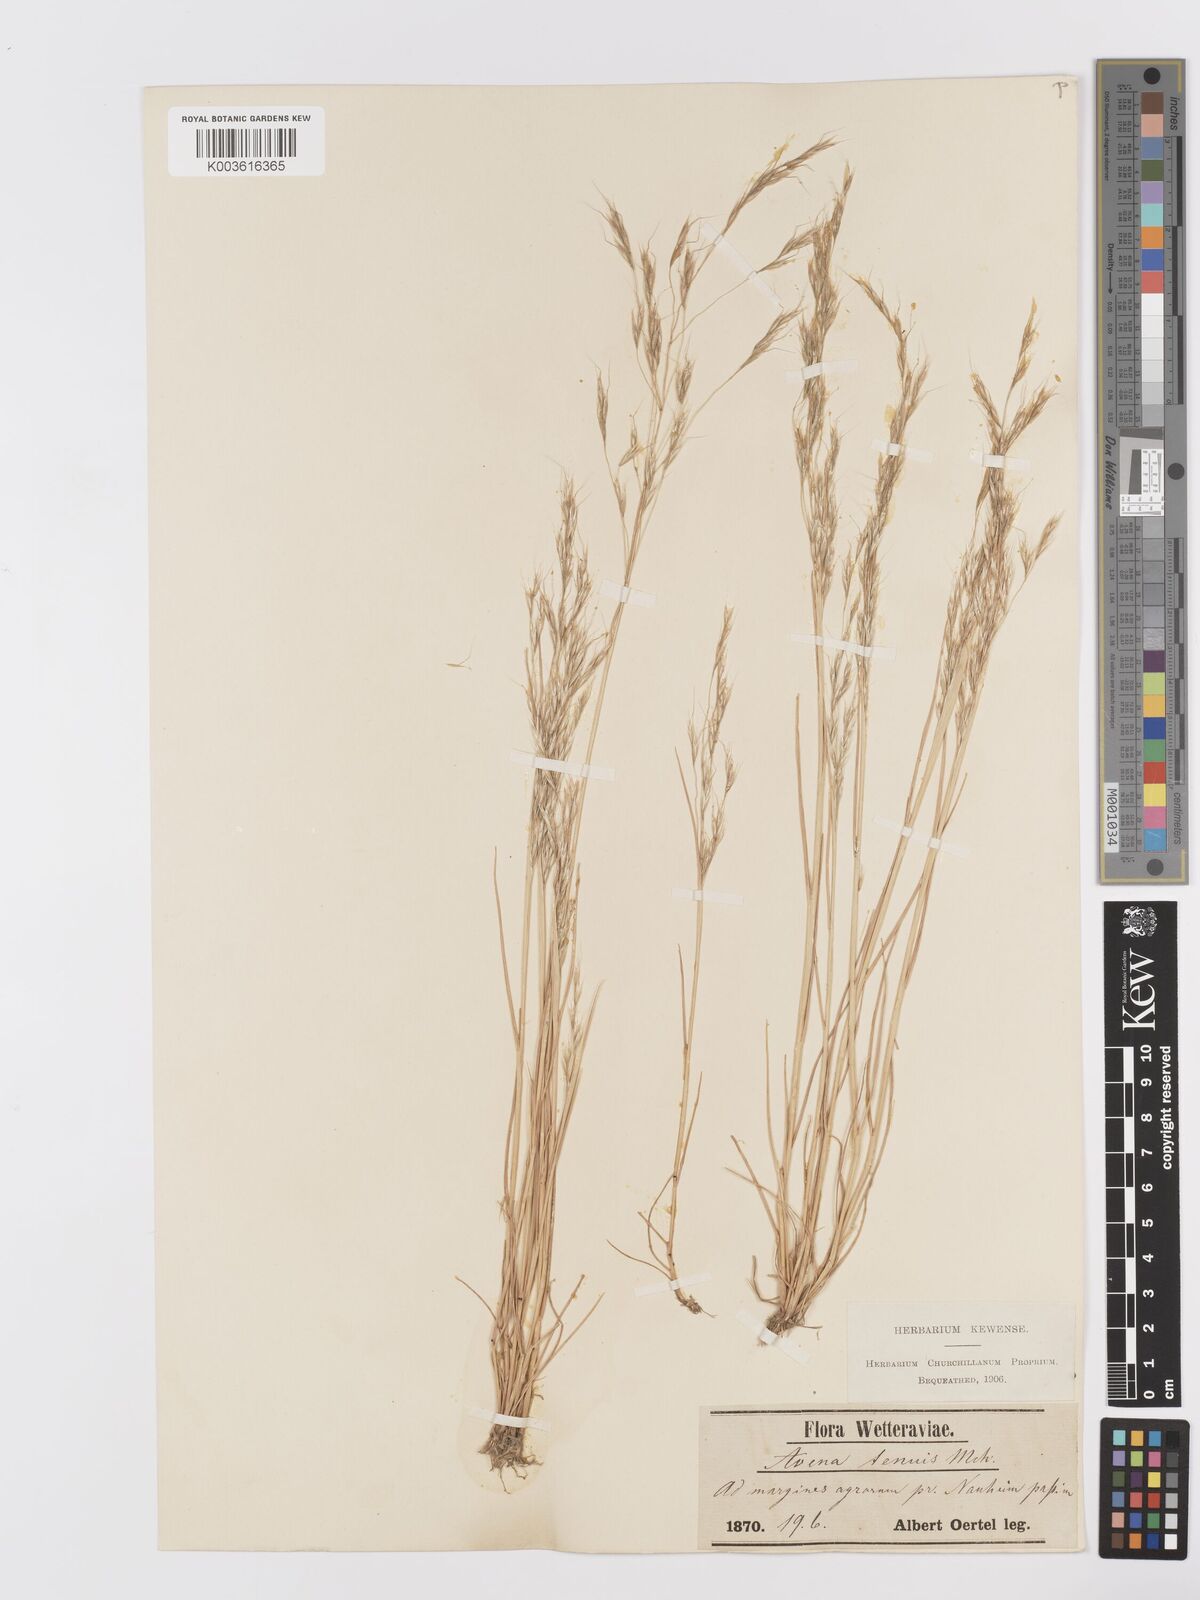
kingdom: Plantae
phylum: Tracheophyta
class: Liliopsida
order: Poales
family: Poaceae
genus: Ventenata
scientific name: Ventenata dubia
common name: North africa grass
